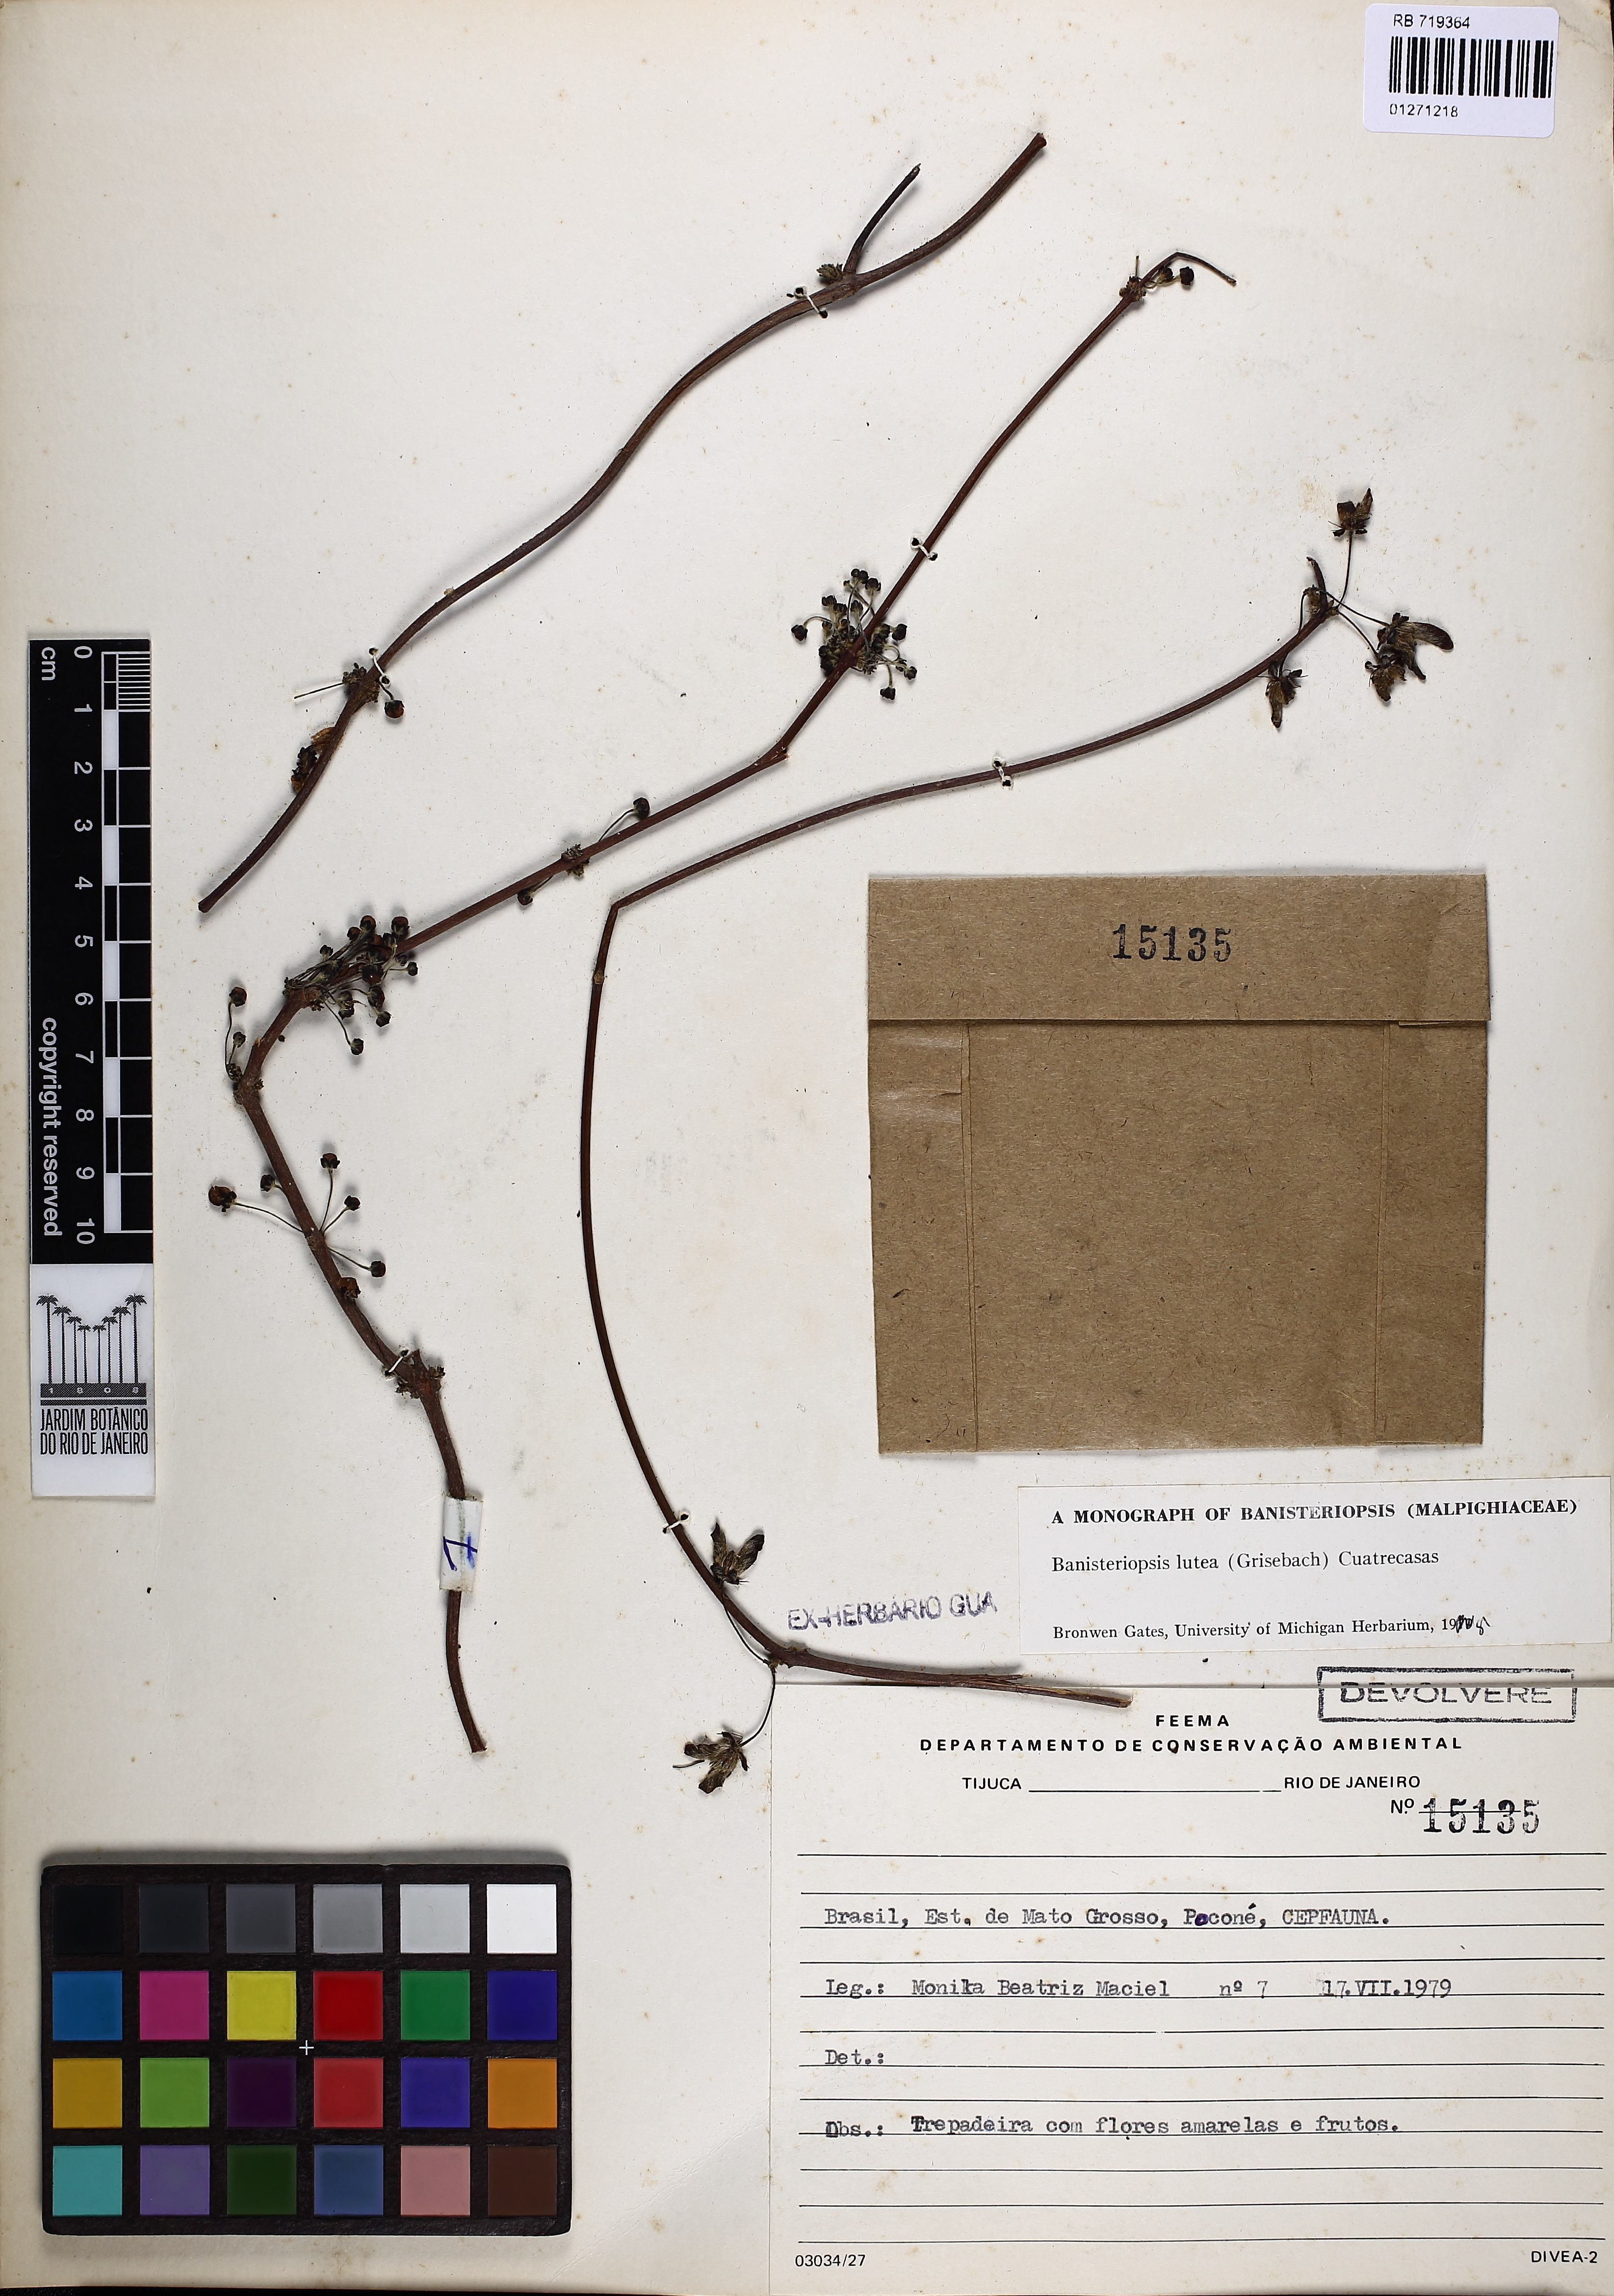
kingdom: Plantae
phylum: Tracheophyta
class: Magnoliopsida
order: Malpighiales
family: Malpighiaceae
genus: Diplopterys
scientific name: Diplopterys lutea
